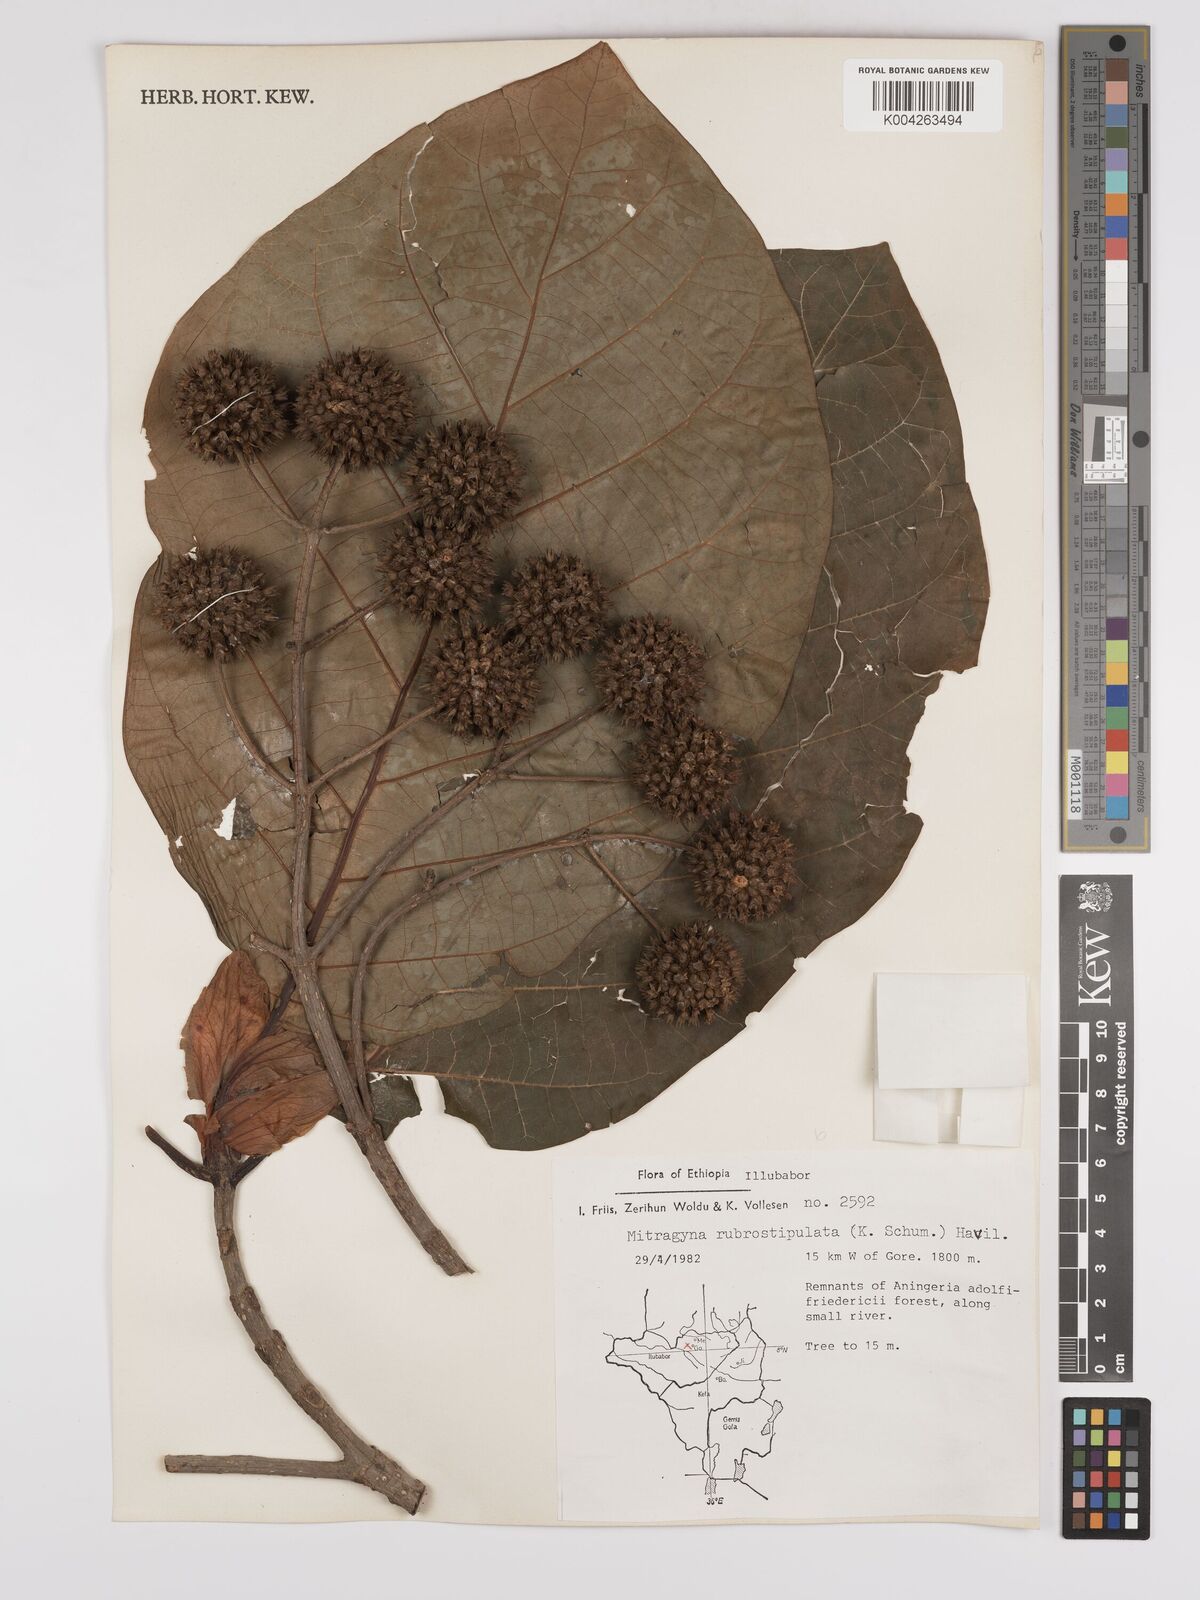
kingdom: Plantae
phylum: Tracheophyta
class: Magnoliopsida
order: Gentianales
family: Rubiaceae
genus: Mitragyna
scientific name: Mitragyna rubrostipulata
